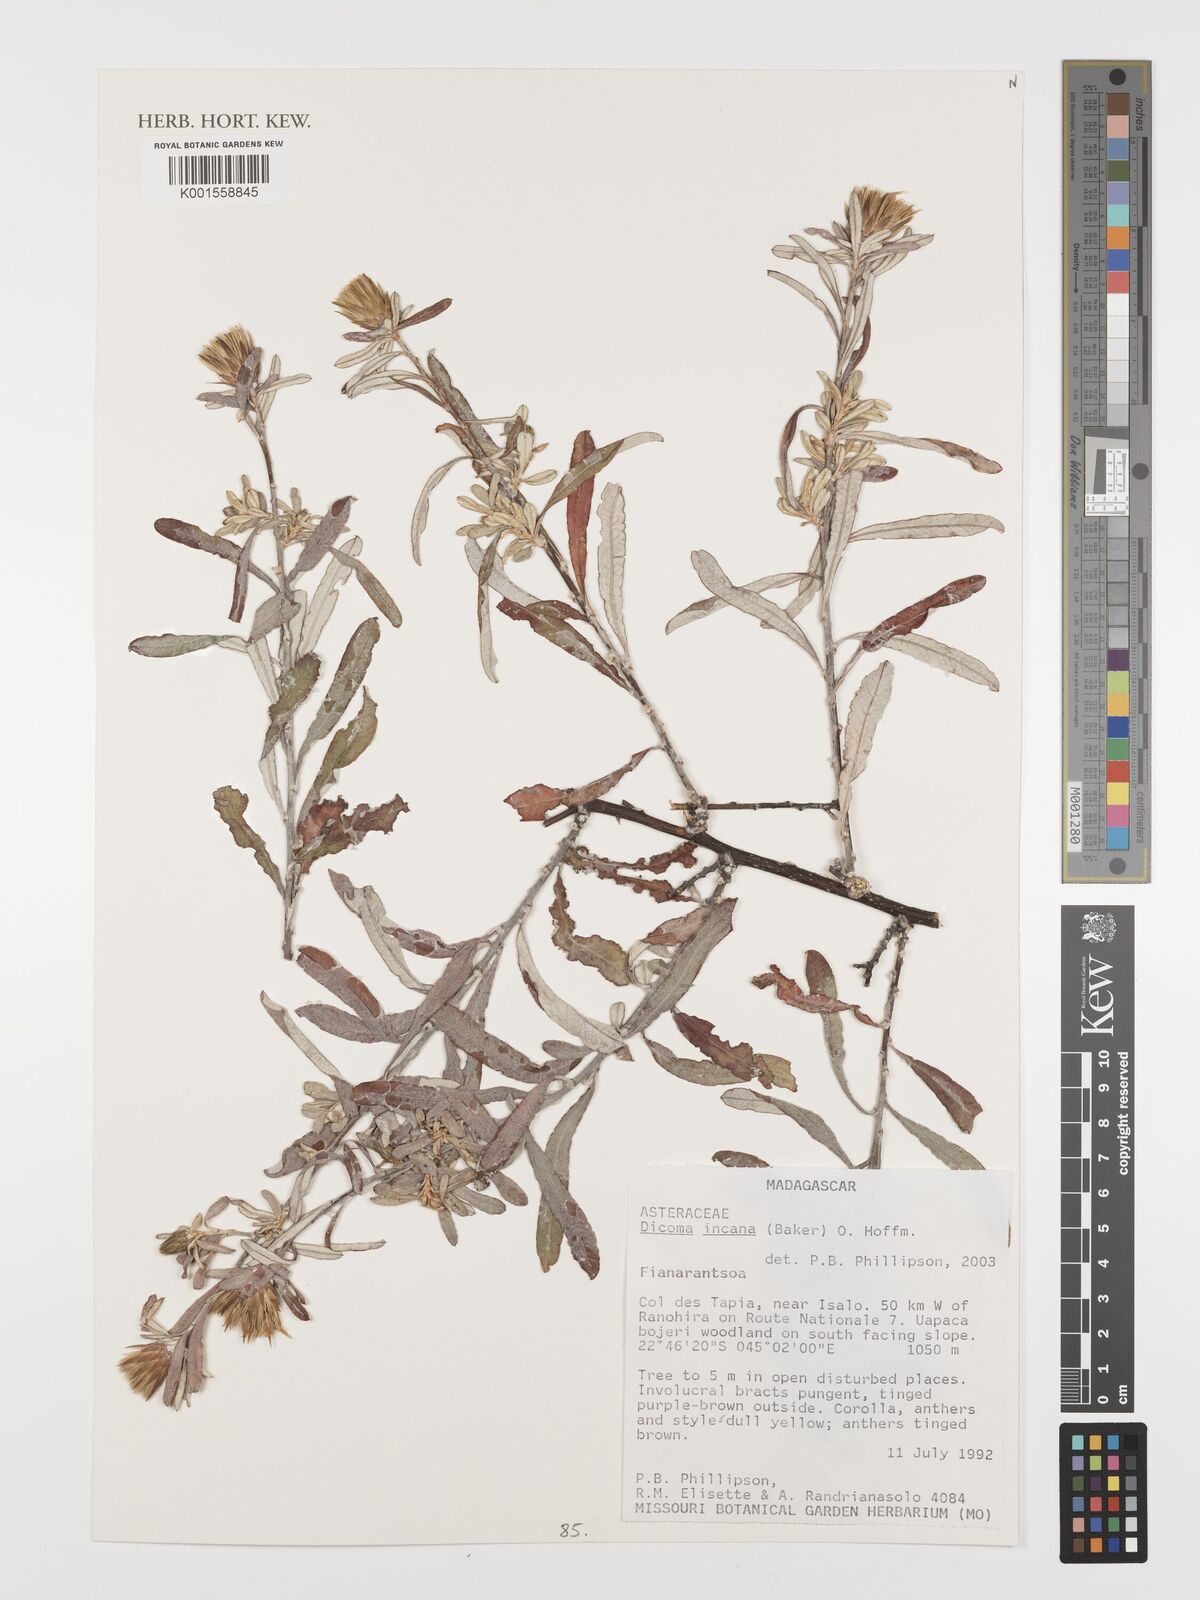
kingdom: Plantae
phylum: Tracheophyta
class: Magnoliopsida
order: Asterales
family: Asteraceae
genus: Dicoma
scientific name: Dicoma incana
